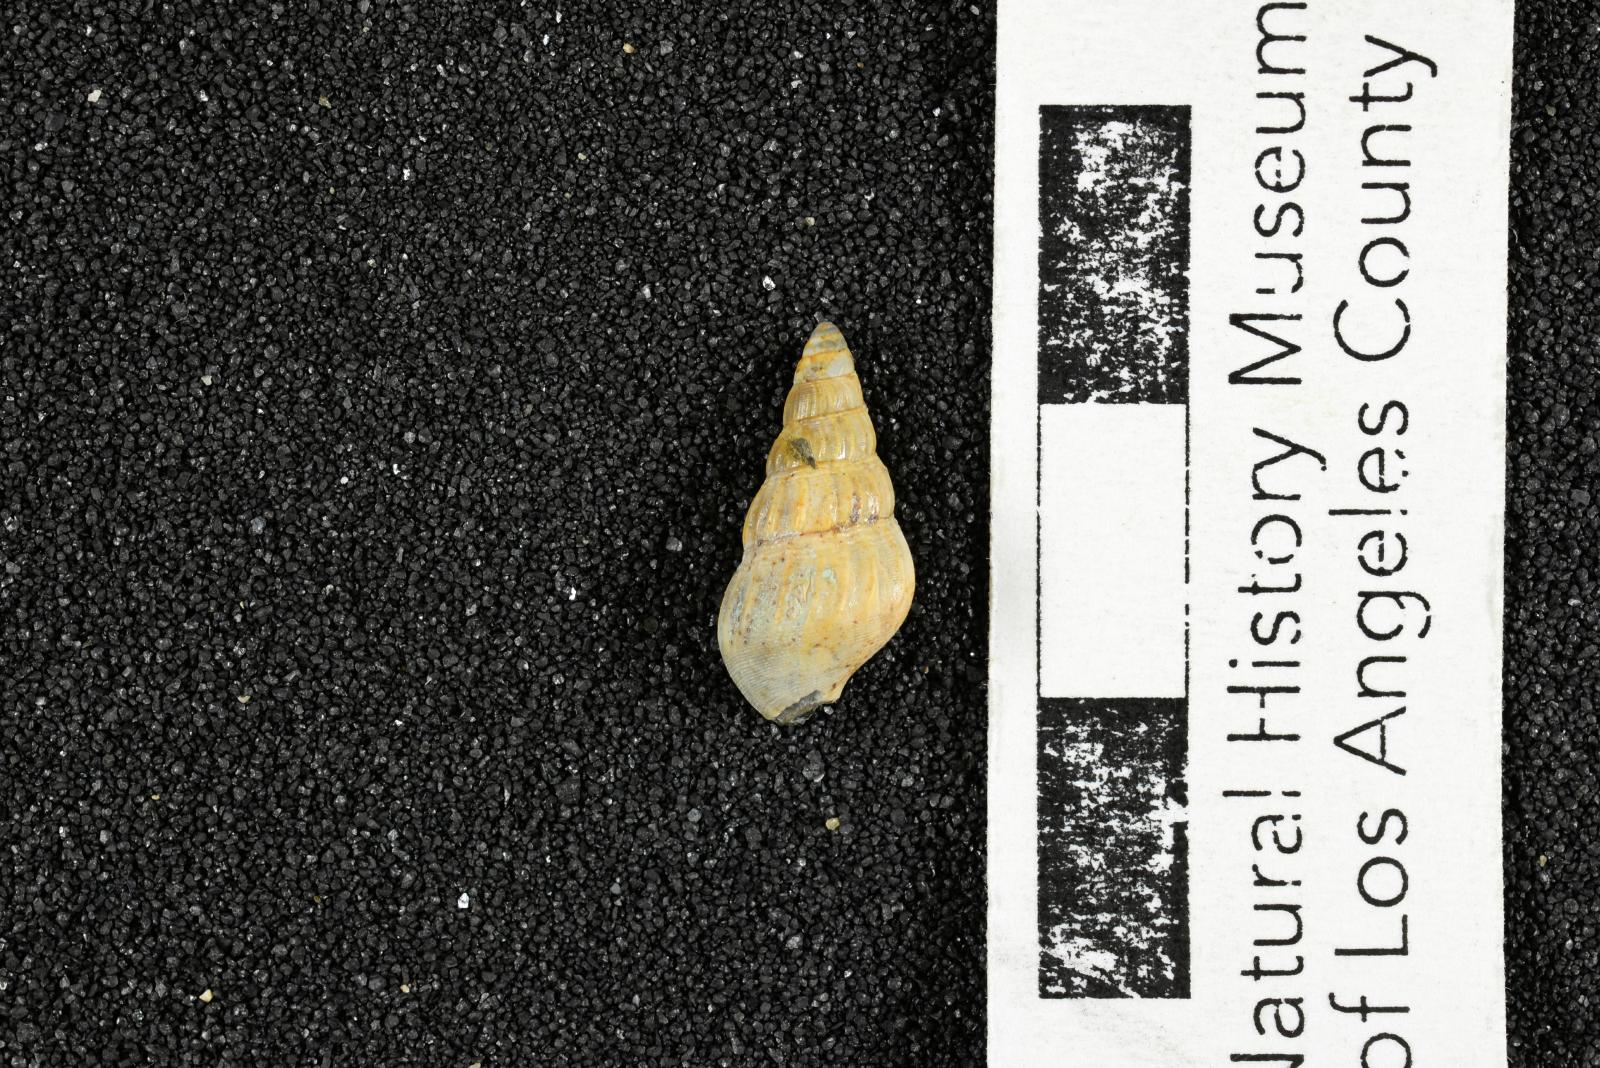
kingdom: Animalia
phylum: Mollusca
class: Gastropoda
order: Littorinimorpha
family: Aporrhaidae
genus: Latiala
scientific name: Latiala heliaca
